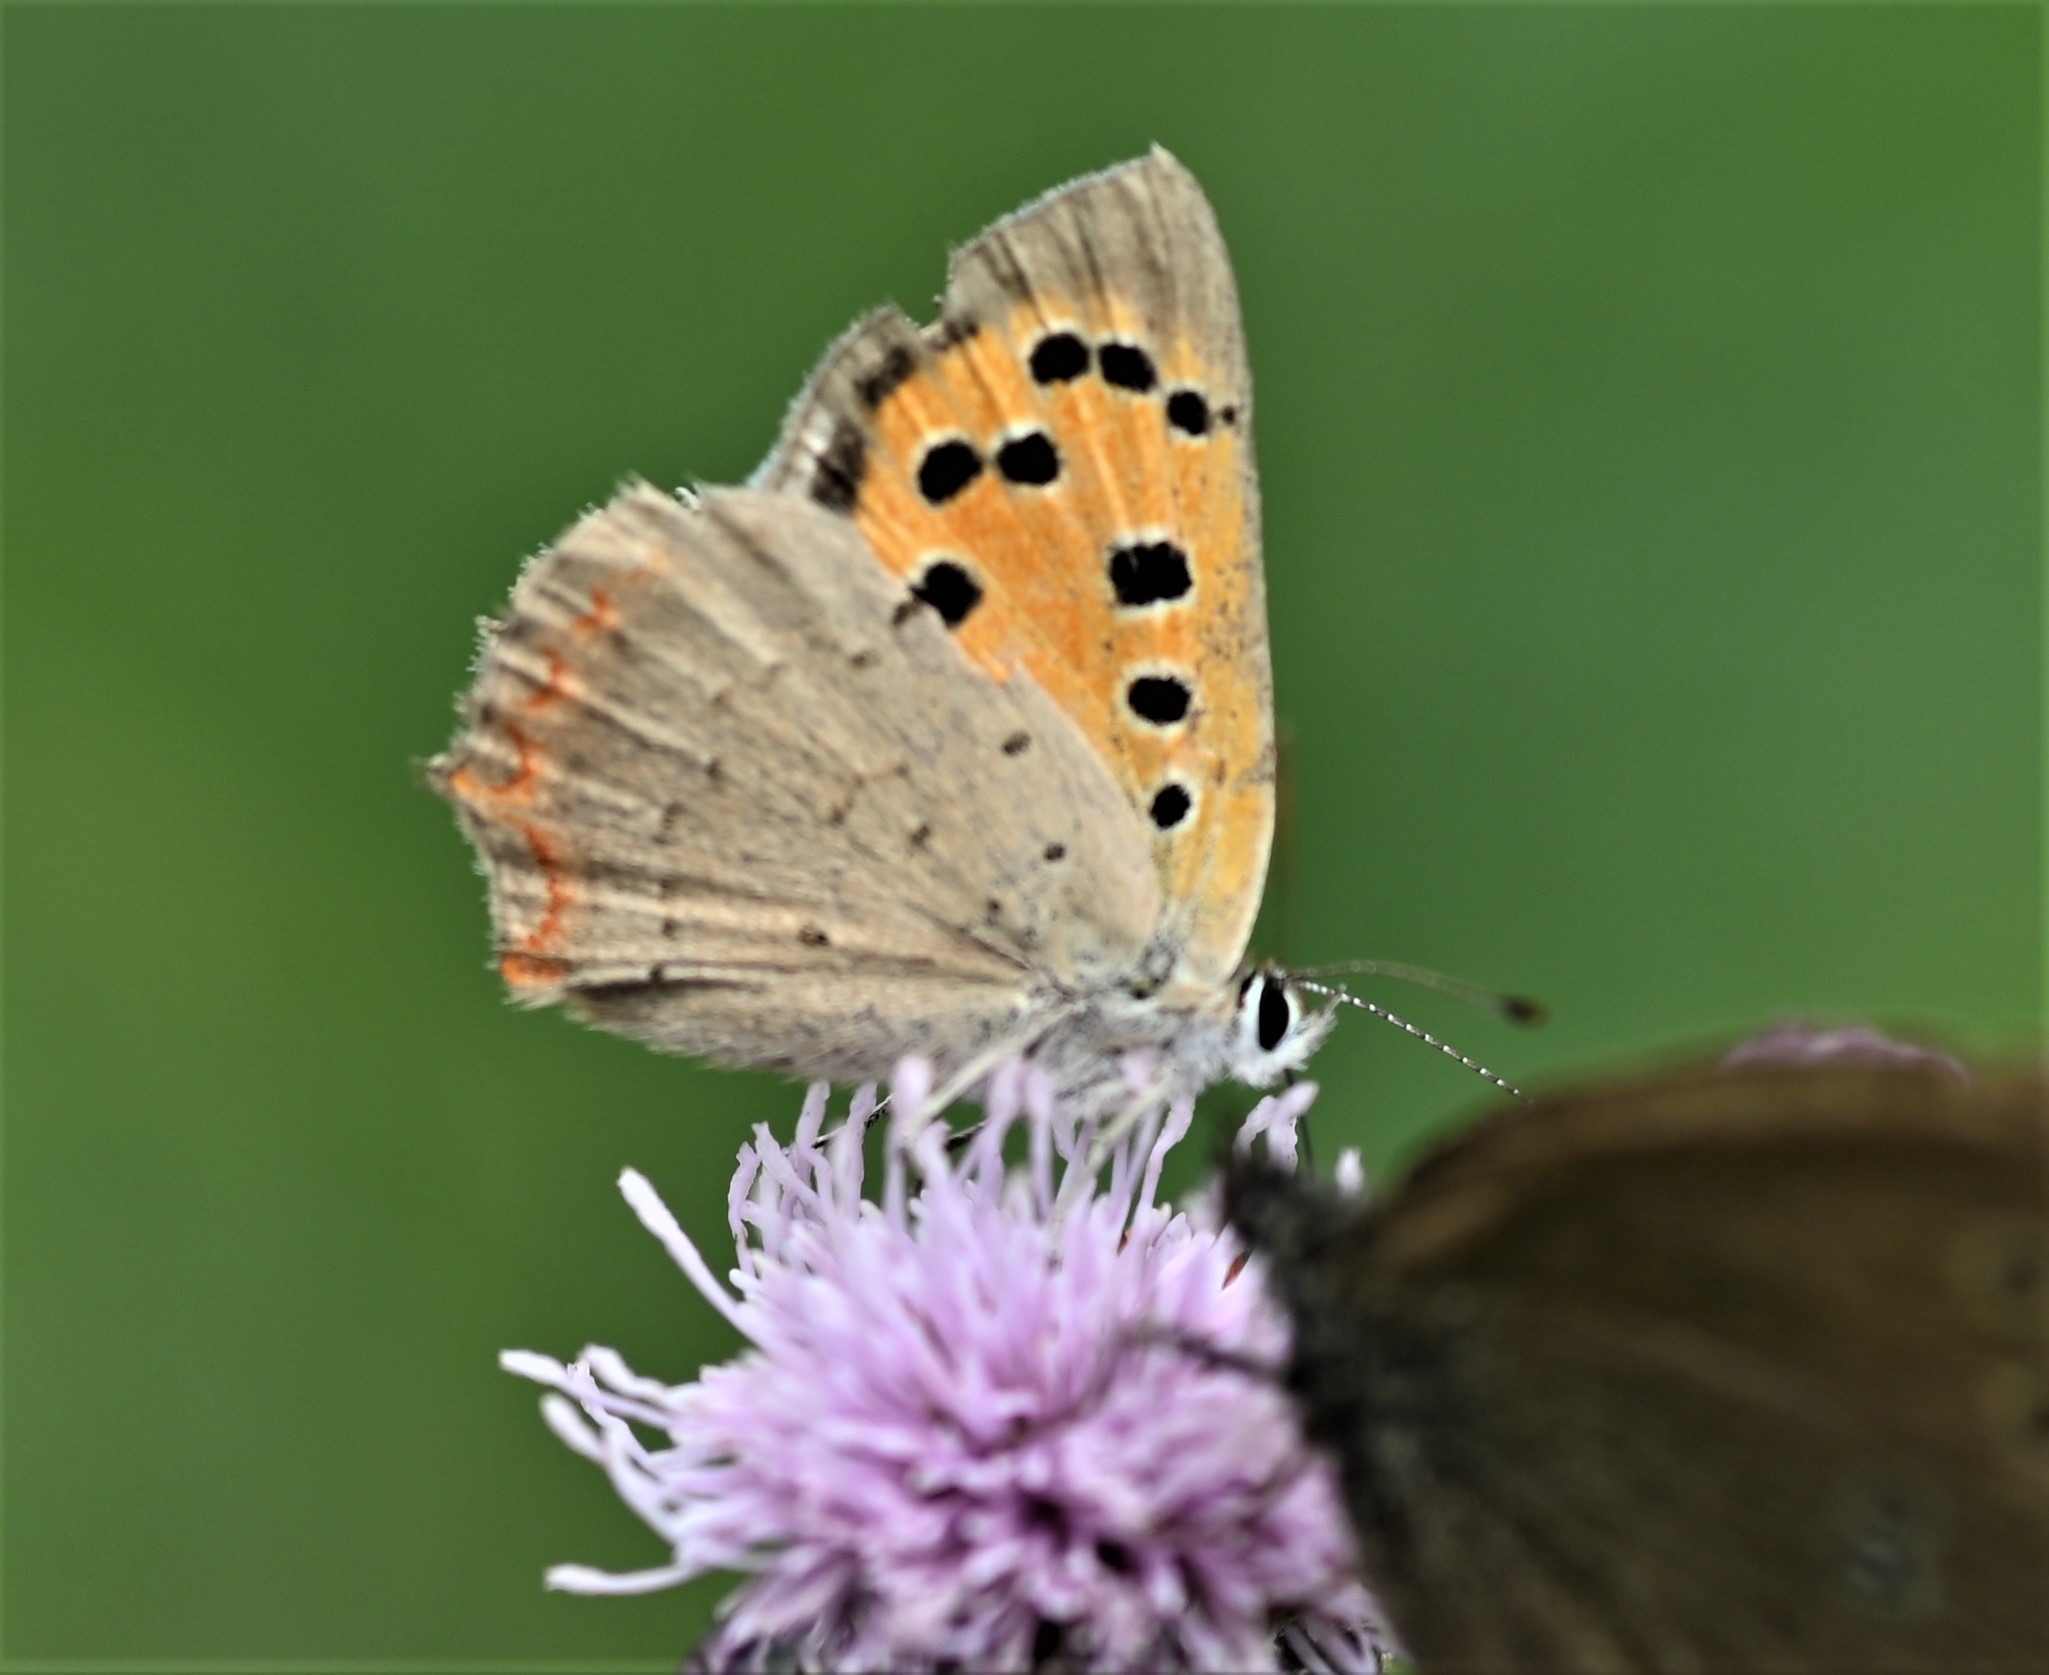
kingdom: Animalia
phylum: Arthropoda
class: Insecta
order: Lepidoptera
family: Lycaenidae
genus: Lycaena
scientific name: Lycaena phlaeas
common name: Lille ildfugl
